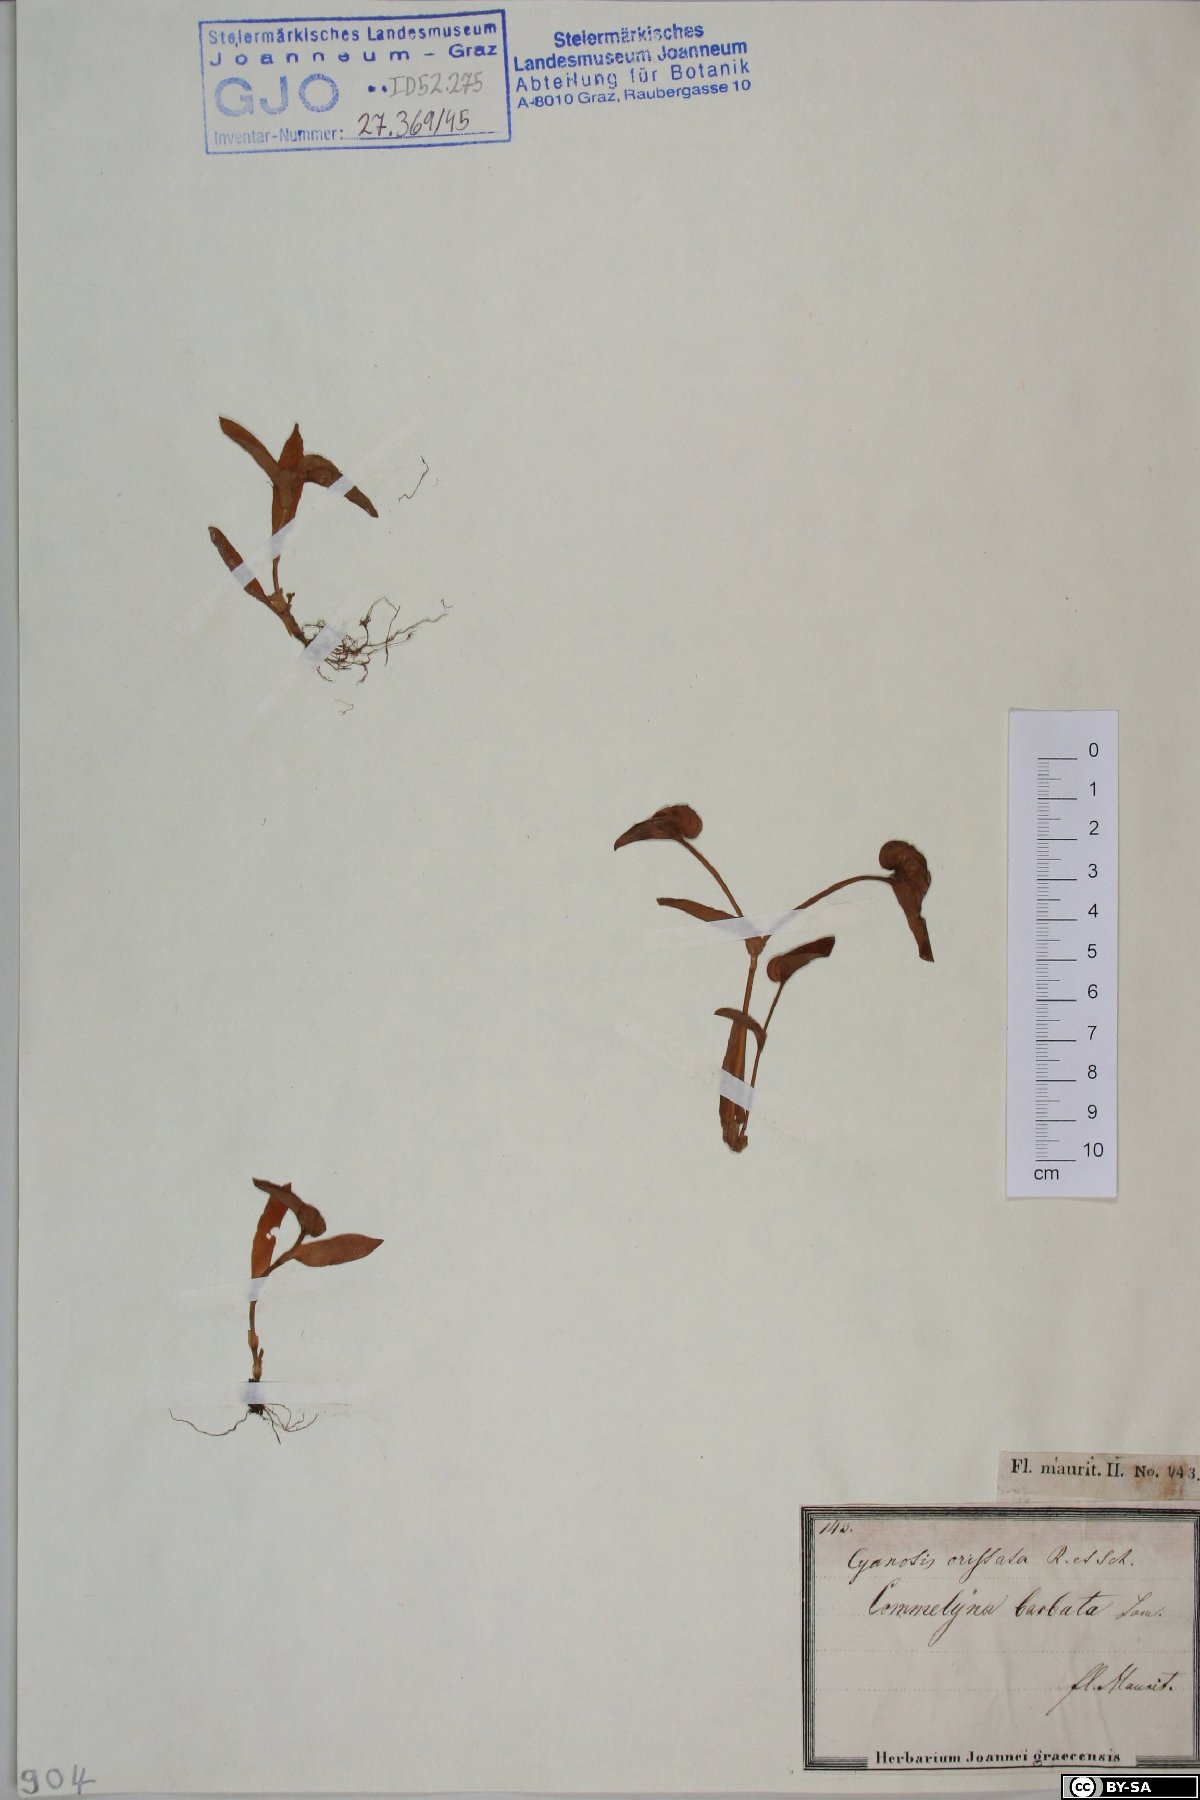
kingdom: Plantae
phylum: Tracheophyta
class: Liliopsida
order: Commelinales
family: Commelinaceae
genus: Cyanotis
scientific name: Cyanotis cristata
